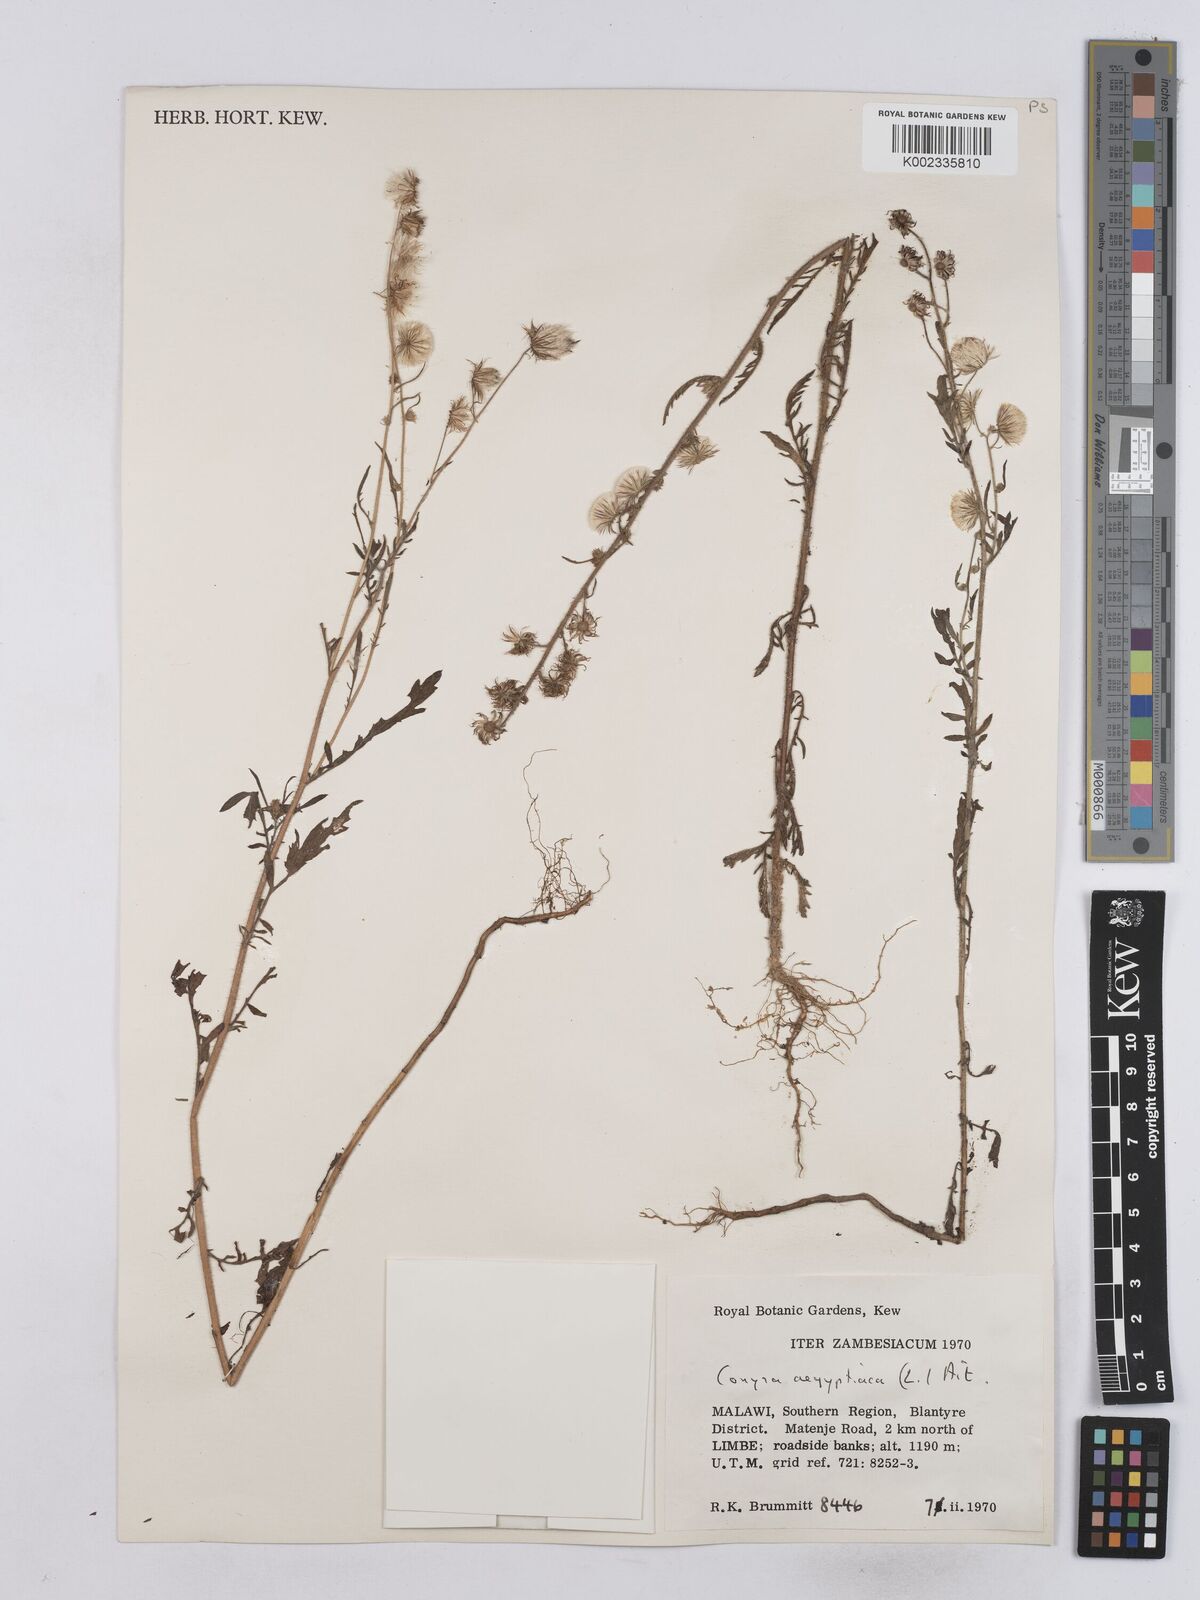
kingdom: Plantae
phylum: Tracheophyta
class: Magnoliopsida
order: Asterales
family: Asteraceae
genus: Nidorella
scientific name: Nidorella aegyptiaca
